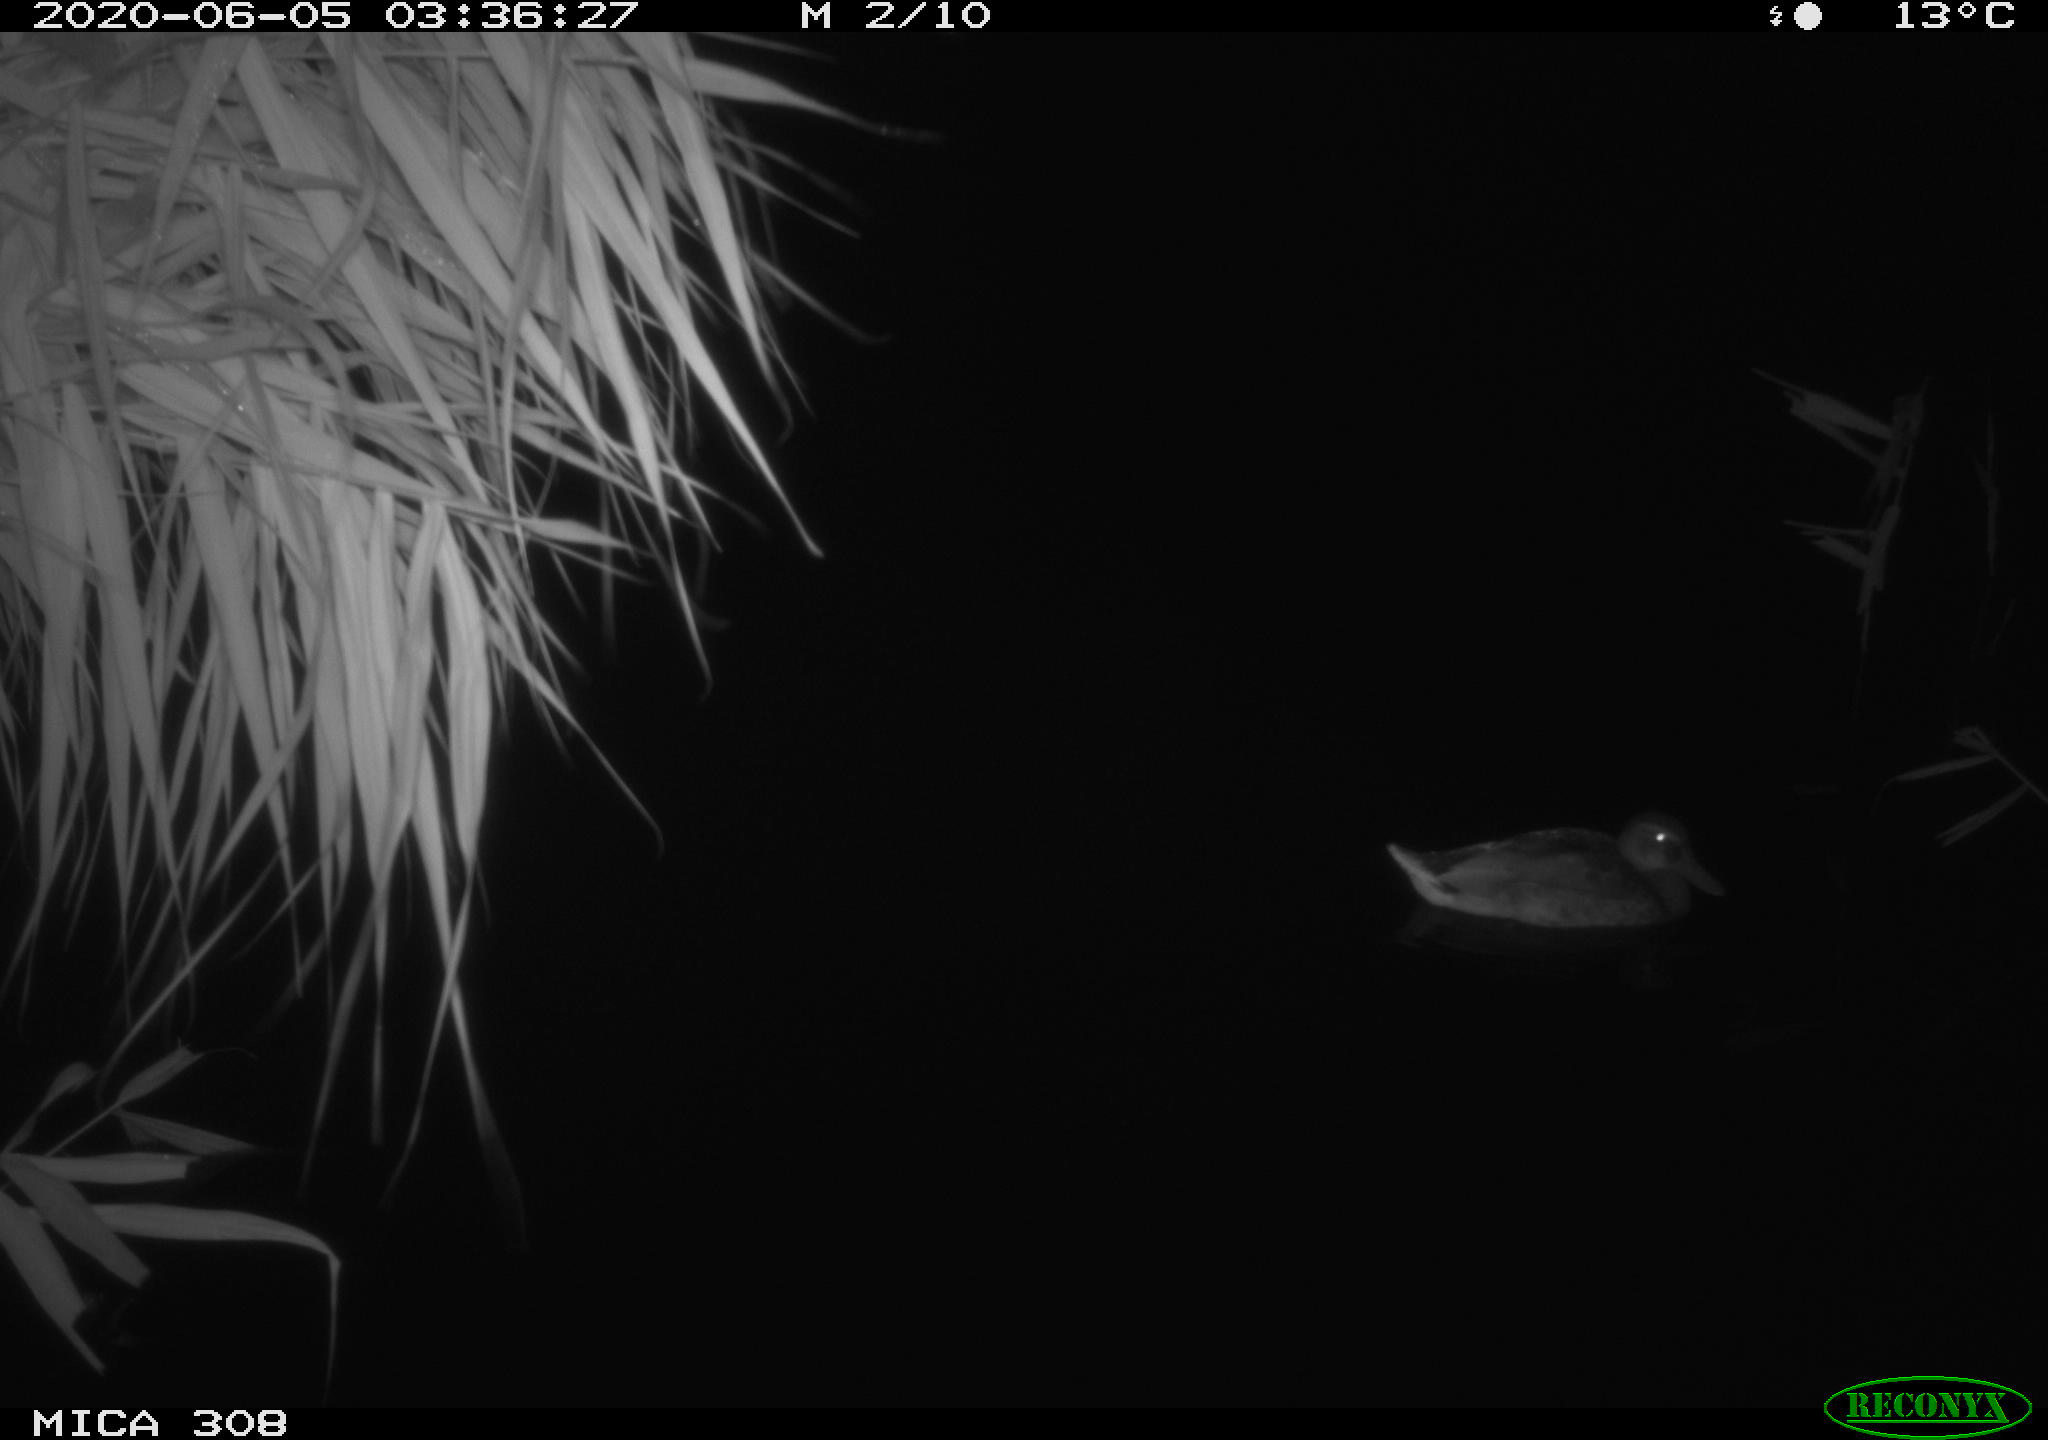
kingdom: Animalia
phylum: Chordata
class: Aves
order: Anseriformes
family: Anatidae
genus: Anas
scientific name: Anas platyrhynchos
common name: Mallard
